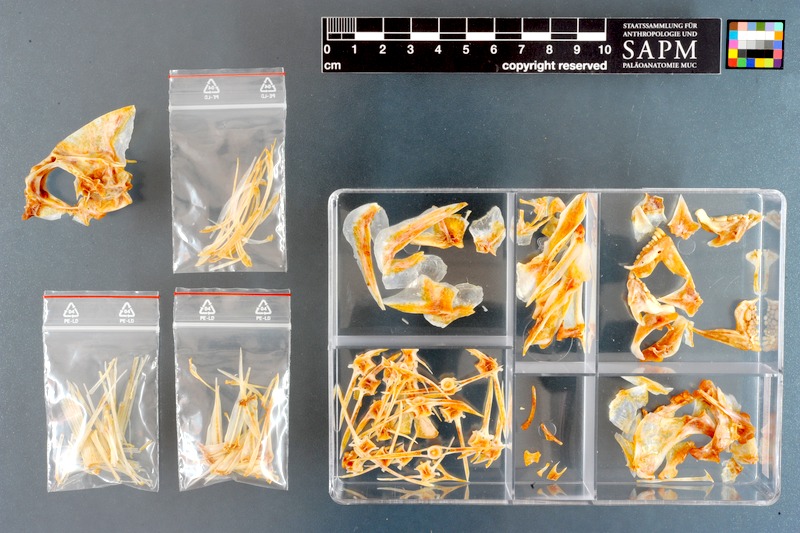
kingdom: Animalia
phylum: Chordata
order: Perciformes
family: Sparidae
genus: Rhabdosargus
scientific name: Rhabdosargus holubi
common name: Cape stumpnose
